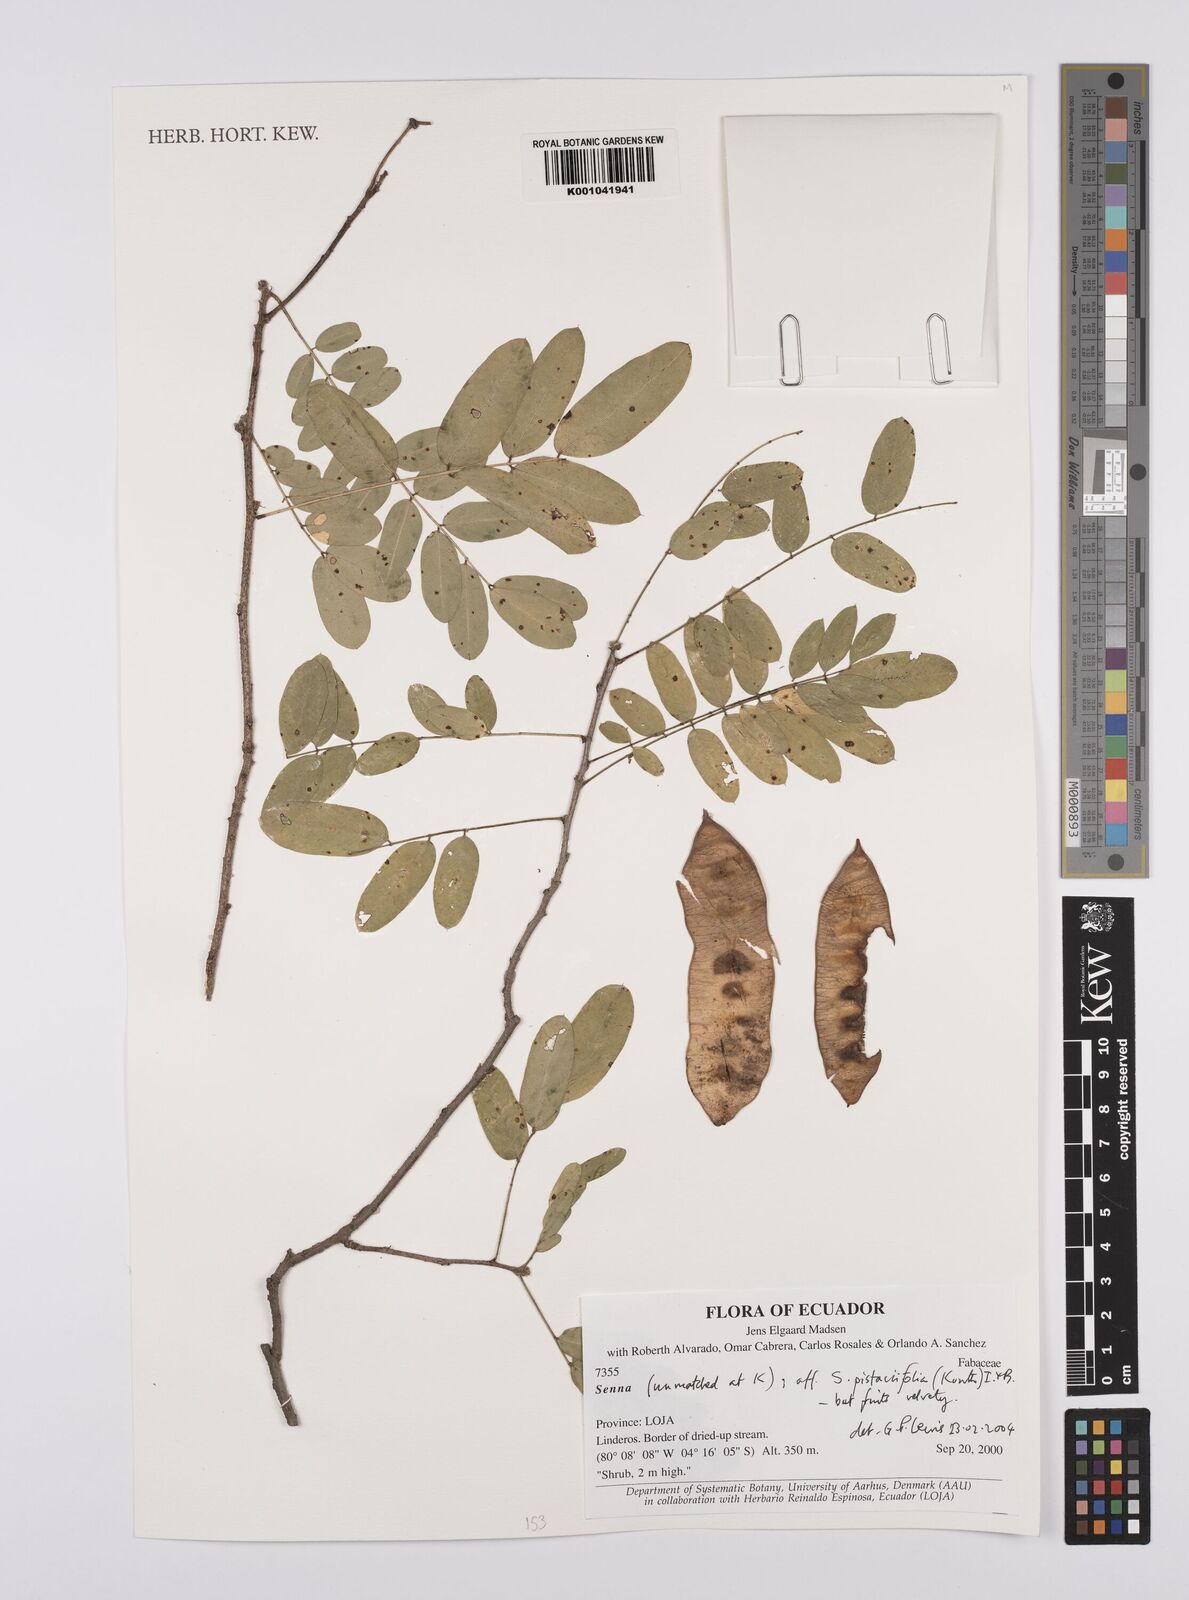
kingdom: Plantae
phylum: Tracheophyta
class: Magnoliopsida
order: Fabales
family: Fabaceae
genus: Senna
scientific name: Senna pistaciifolia
